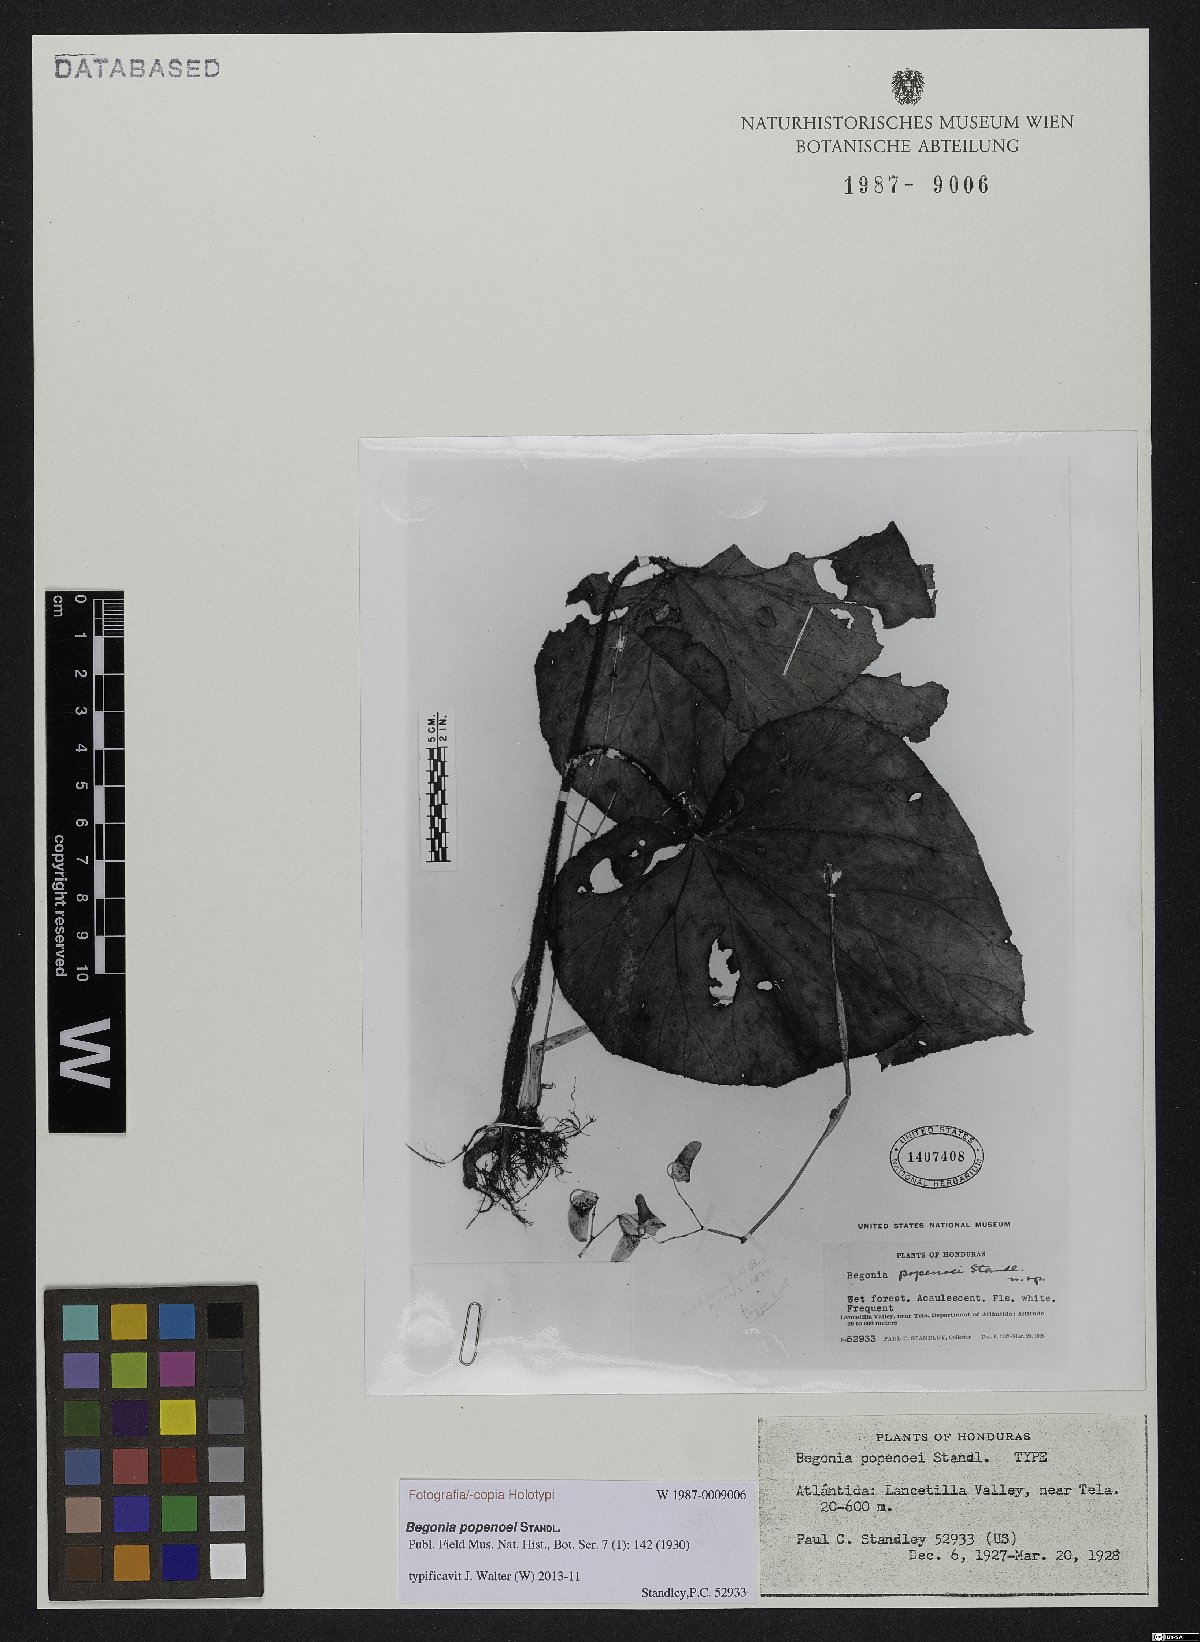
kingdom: Plantae
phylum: Tracheophyta
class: Magnoliopsida
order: Cucurbitales
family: Begoniaceae
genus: Begonia
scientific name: Begonia popenoei
